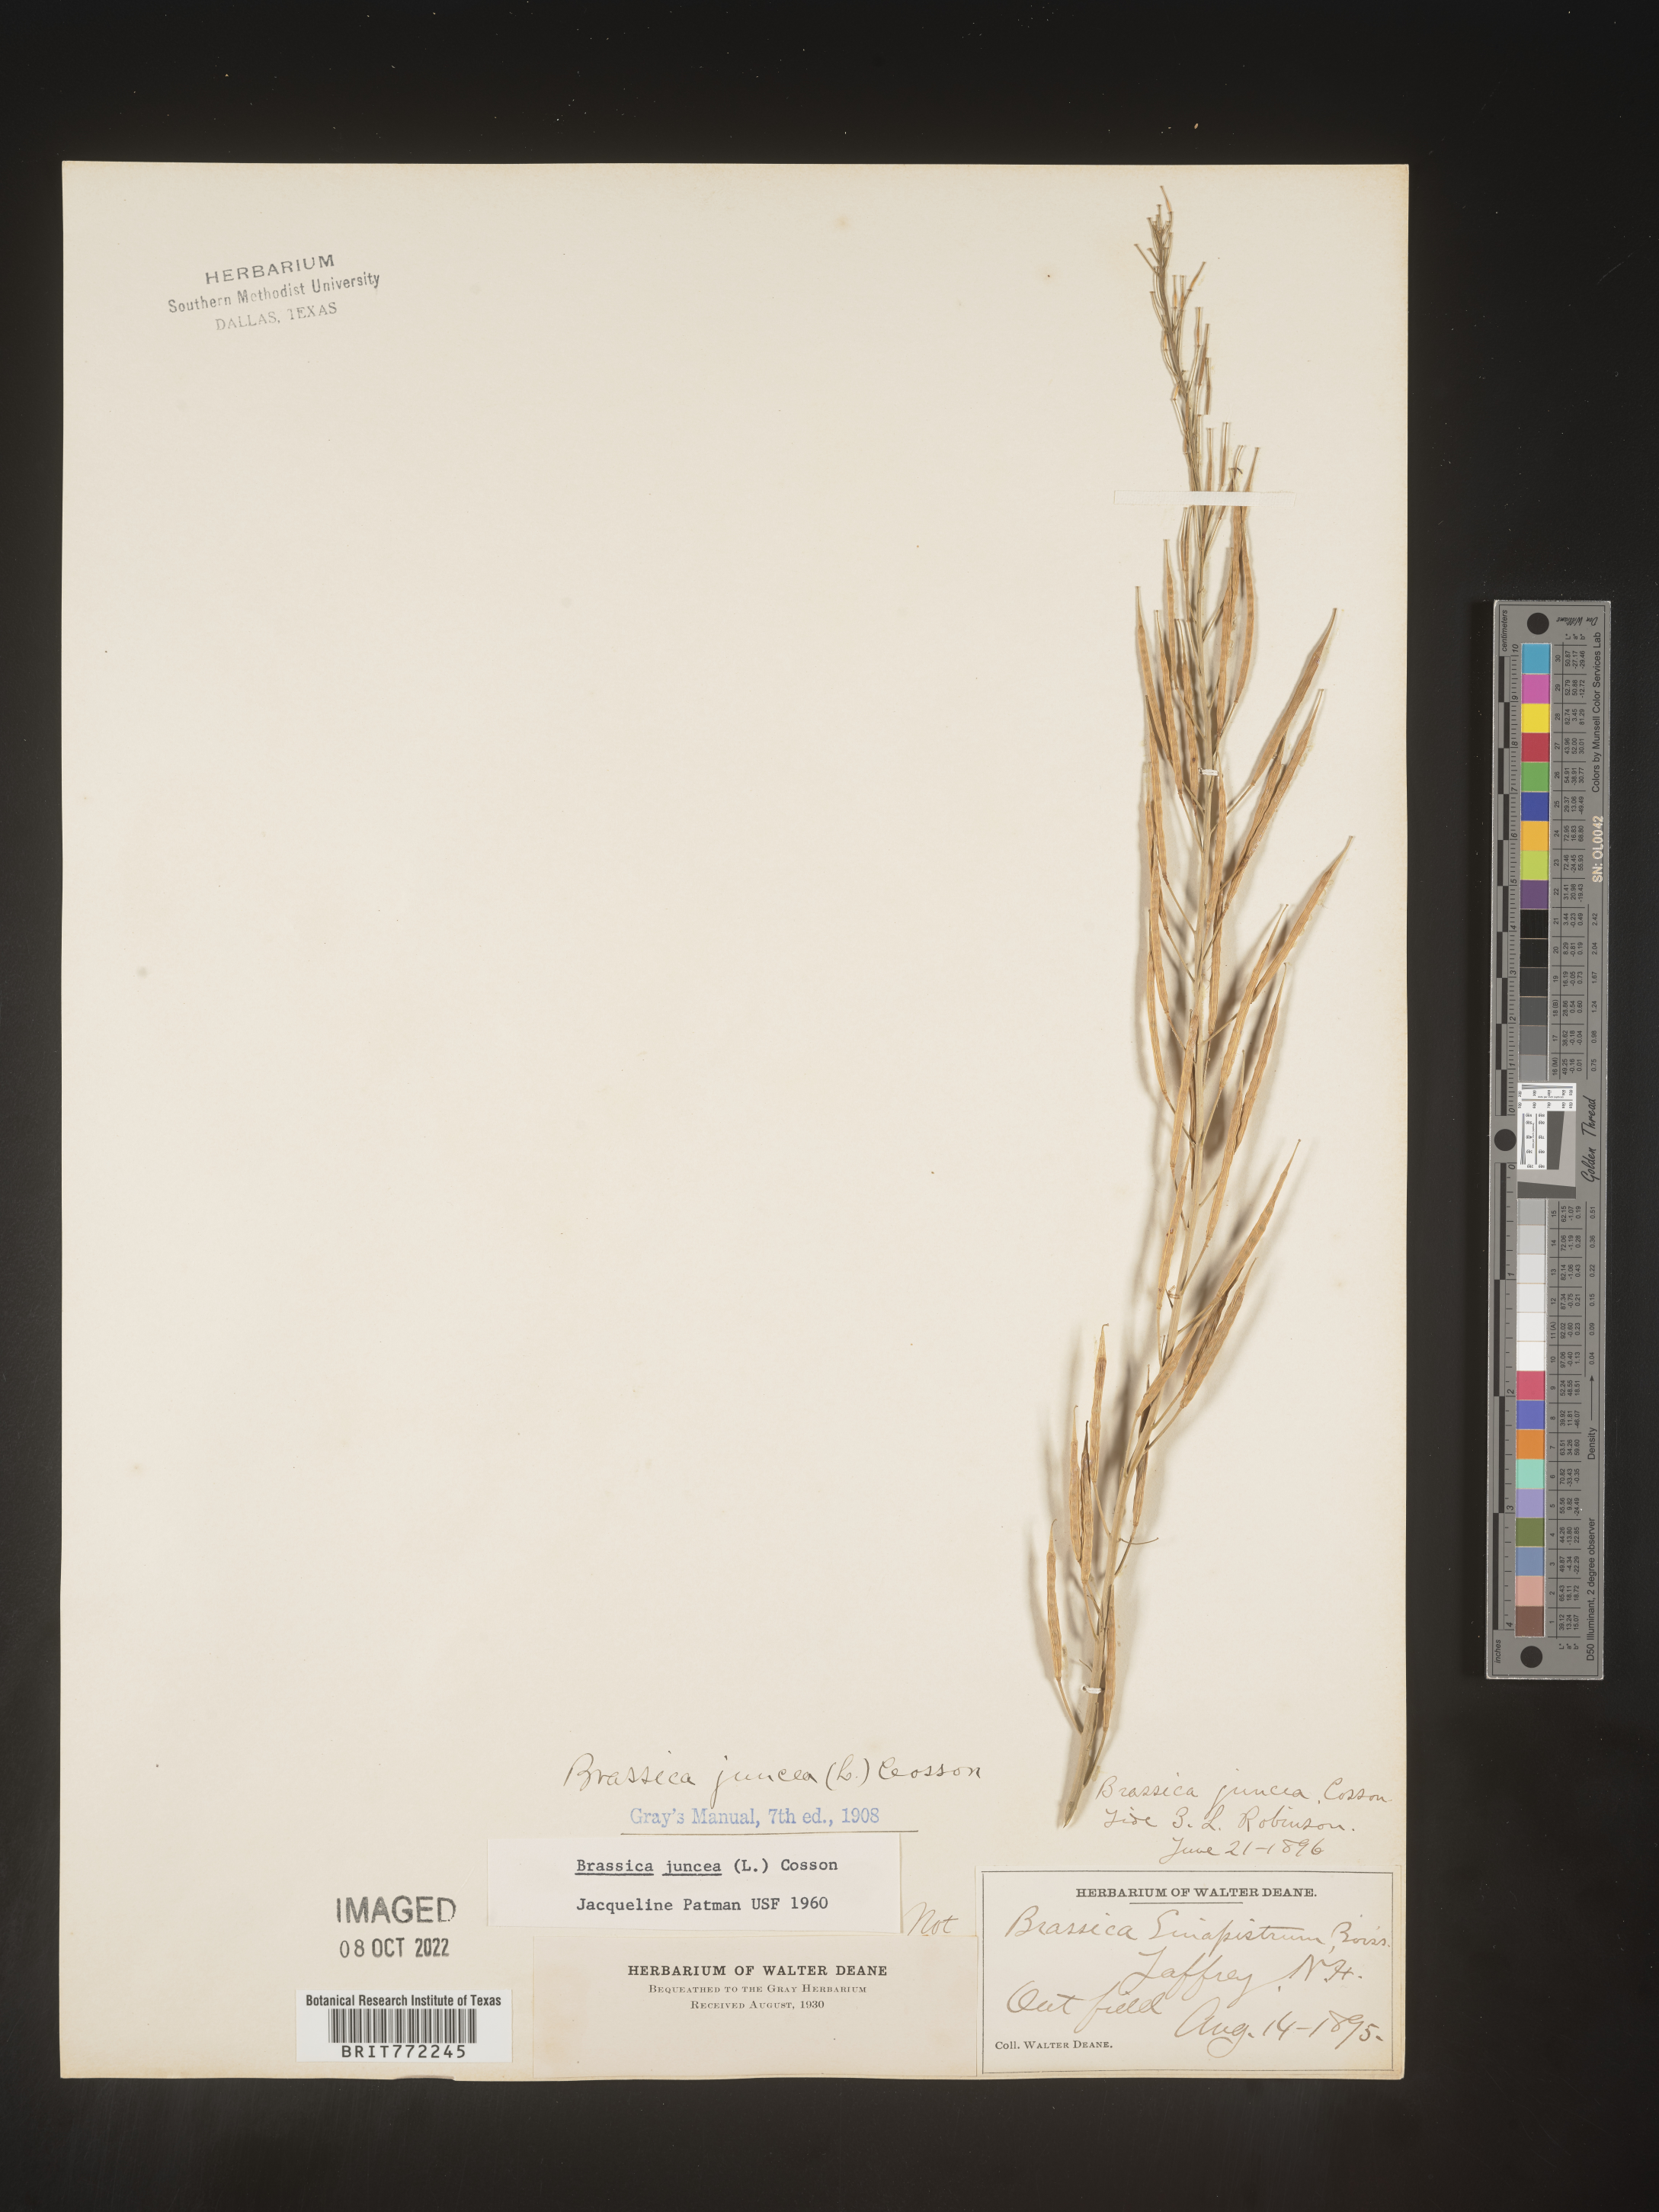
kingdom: Plantae
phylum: Tracheophyta
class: Magnoliopsida
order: Brassicales
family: Brassicaceae
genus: Brassica
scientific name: Brassica juncea
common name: Brown mustard
